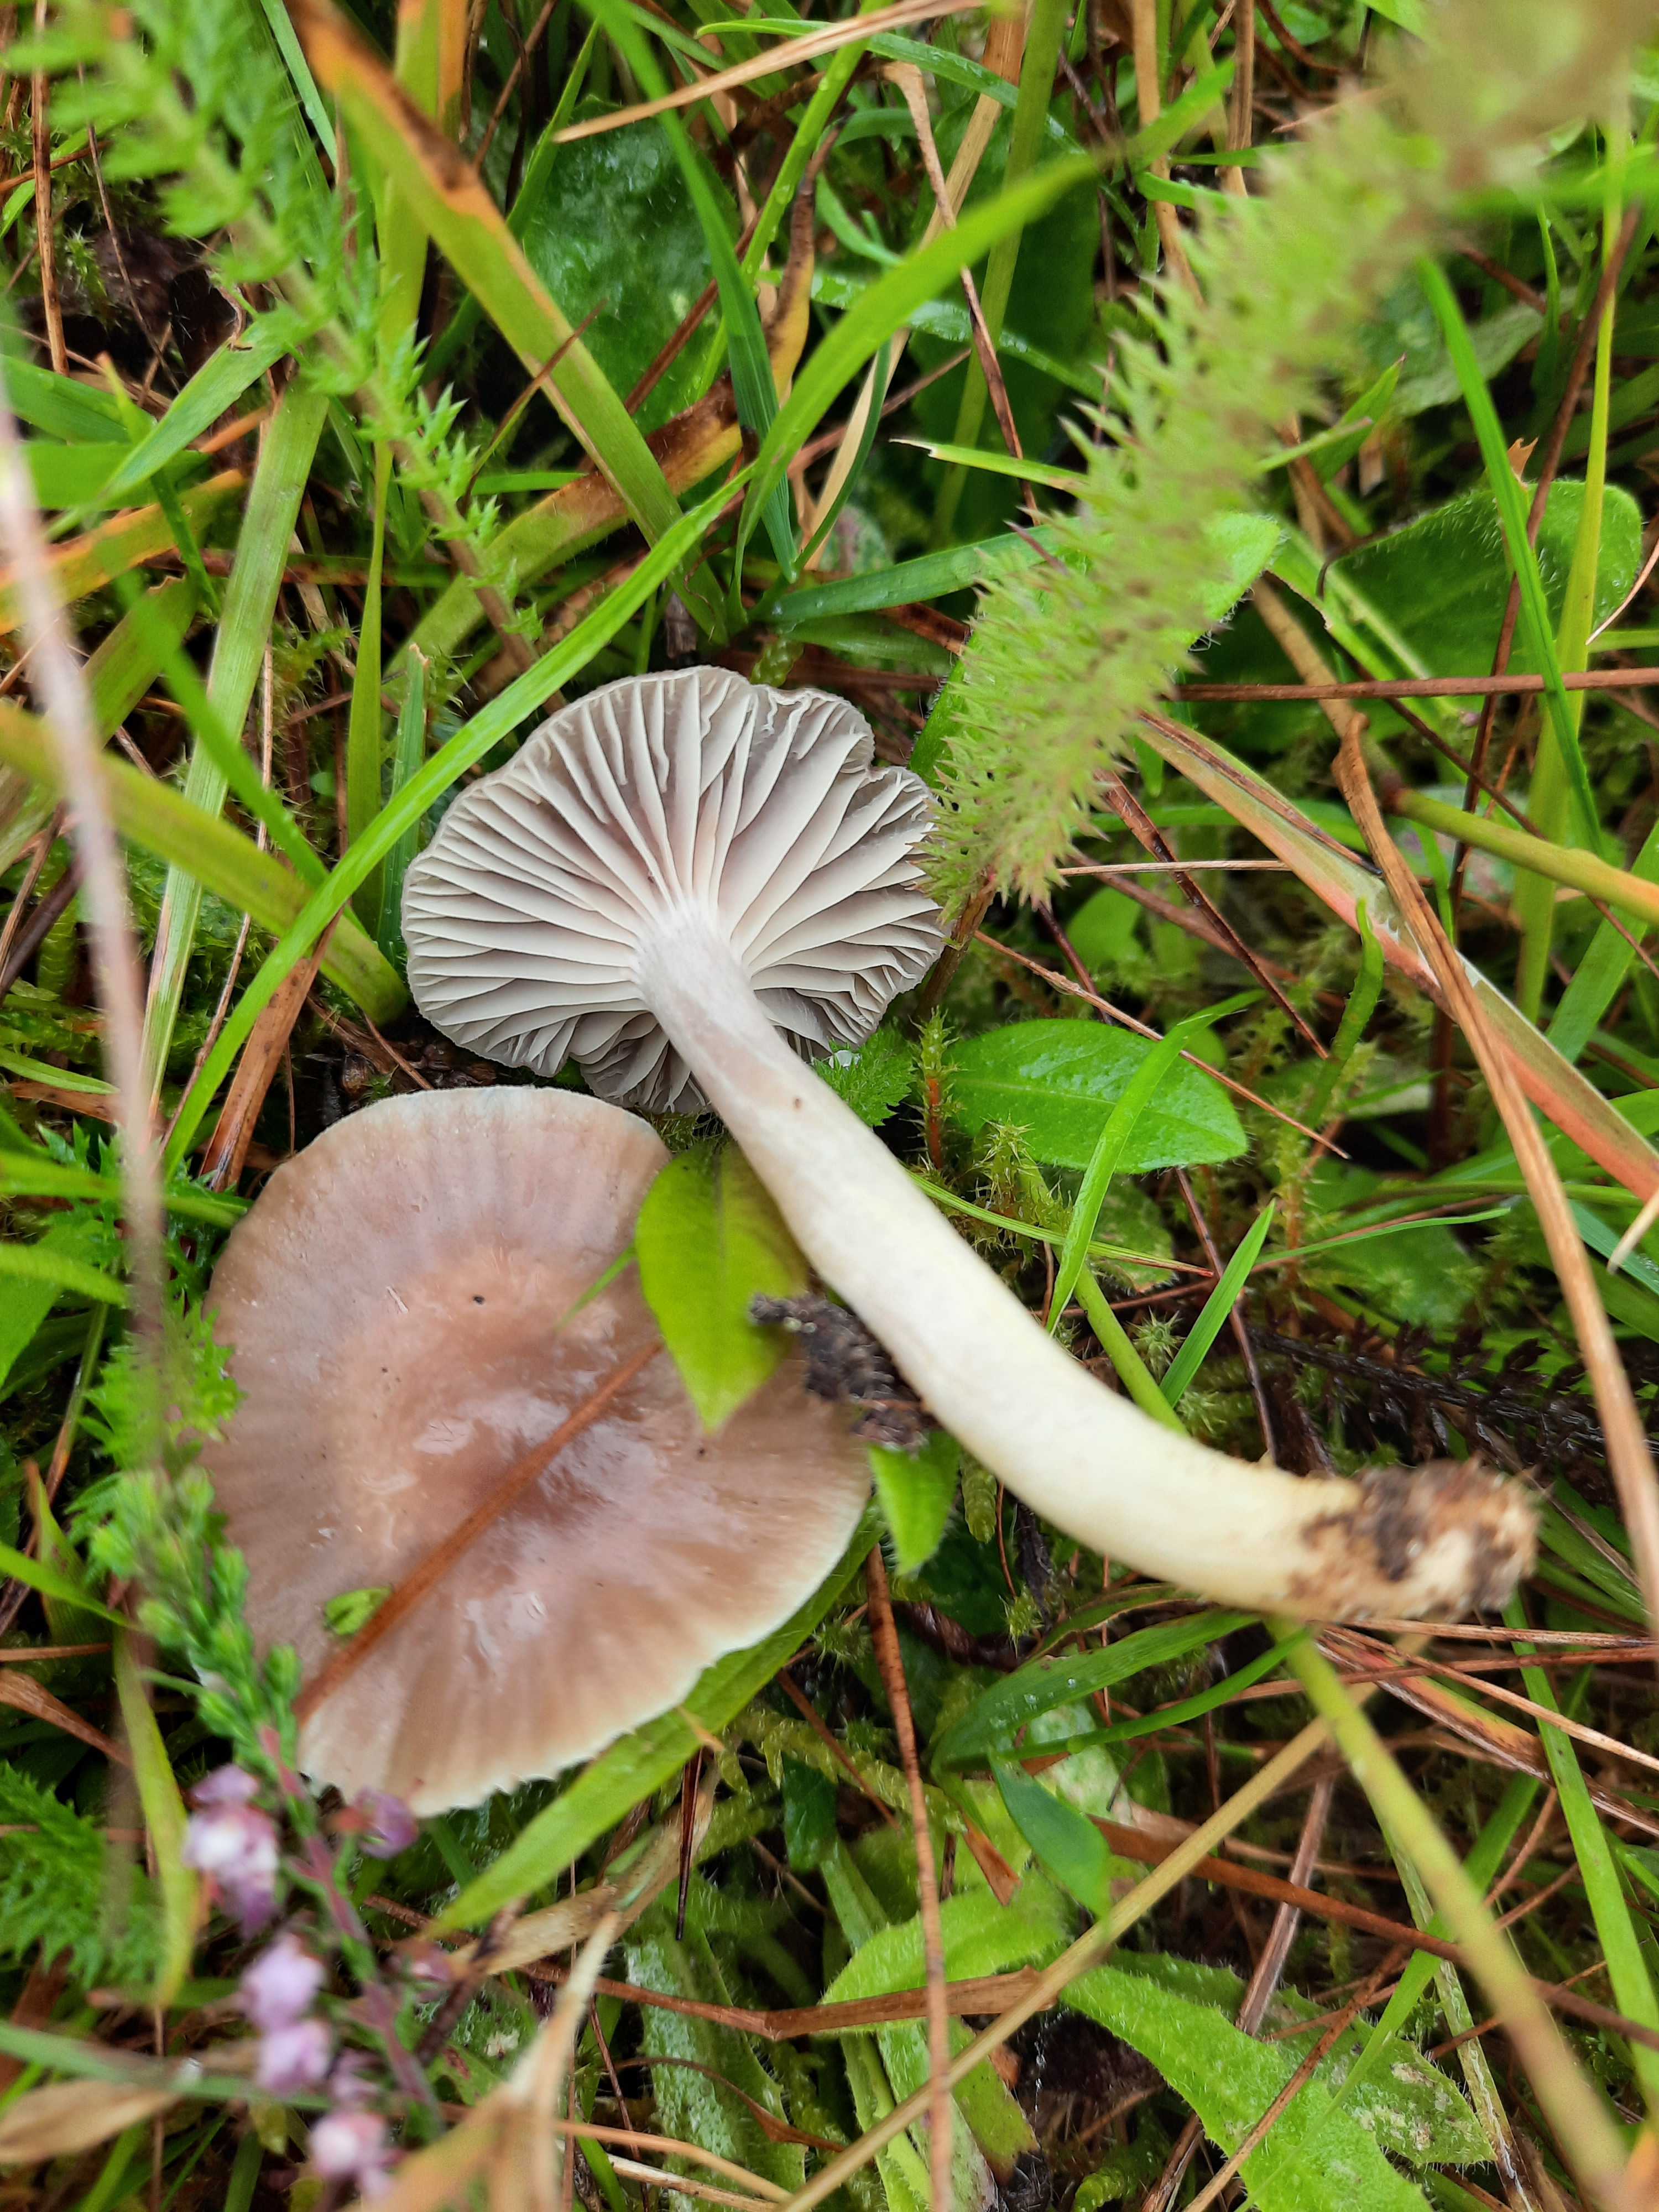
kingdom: Fungi
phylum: Basidiomycota
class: Agaricomycetes
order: Agaricales
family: Hygrophoraceae
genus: Cuphophyllus
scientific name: Cuphophyllus flavipesoides
